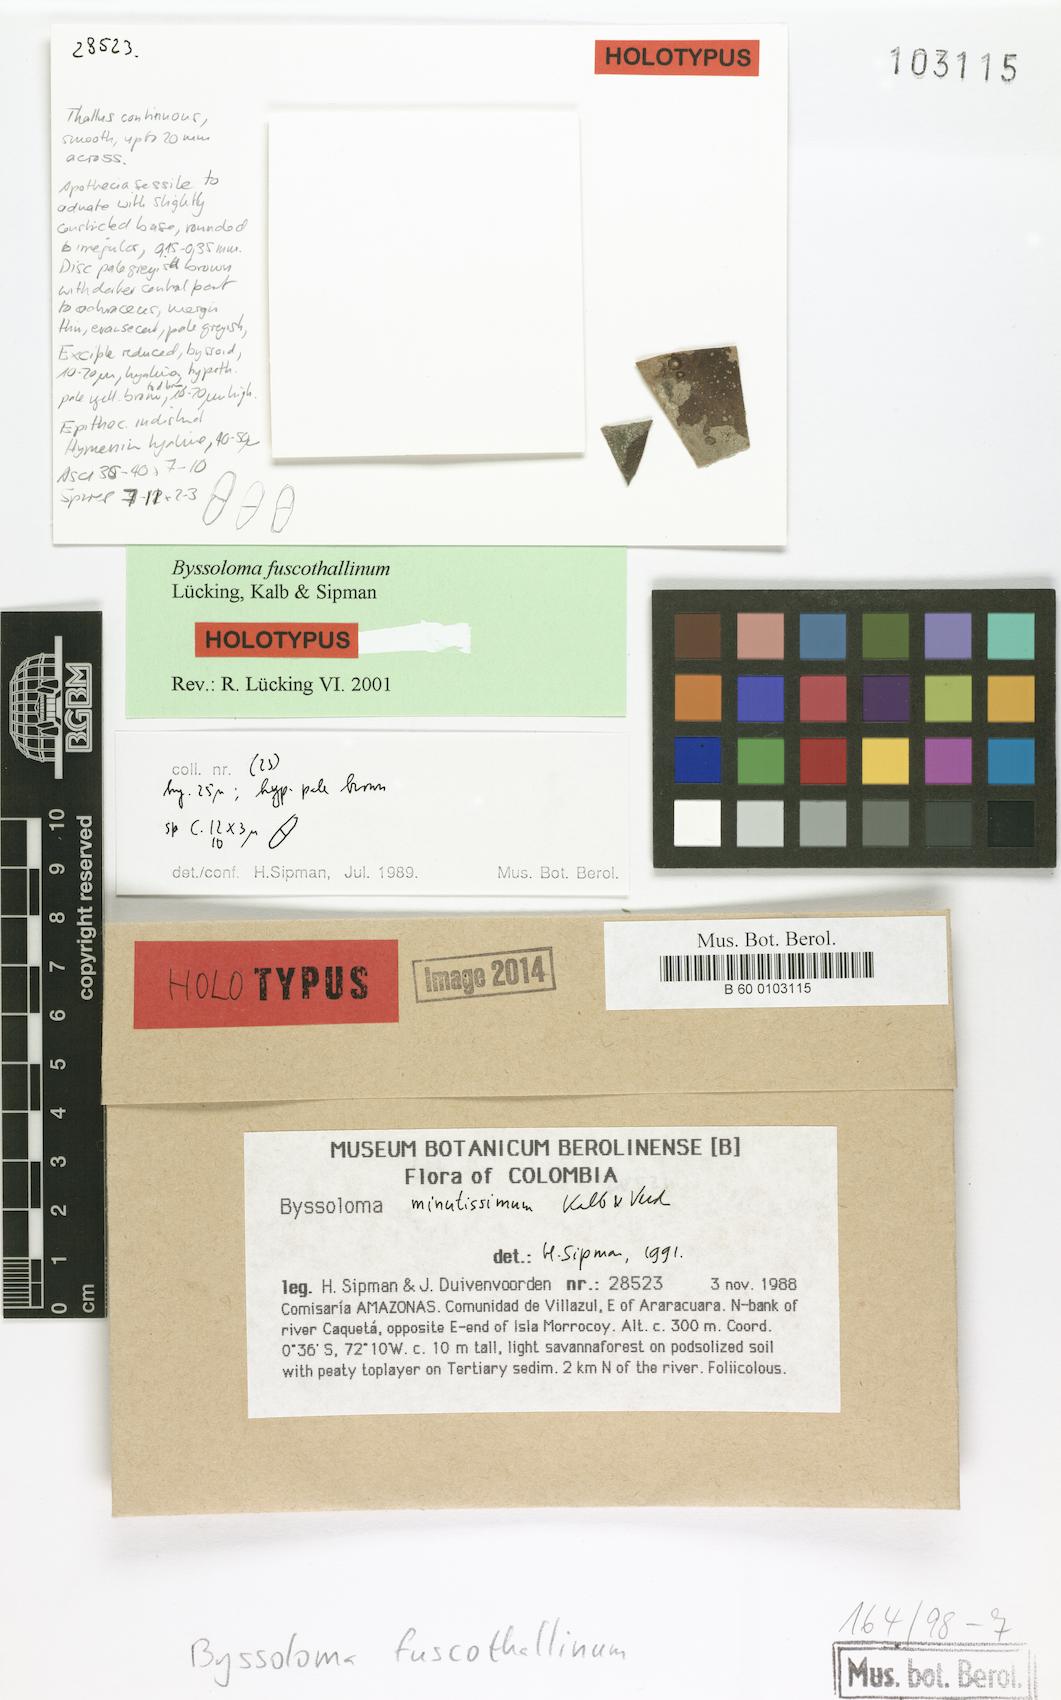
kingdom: Fungi
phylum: Ascomycota
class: Lecanoromycetes
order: Lecanorales
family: Byssolomataceae
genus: Byssoloma
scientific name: Byssoloma fuscothallinum
